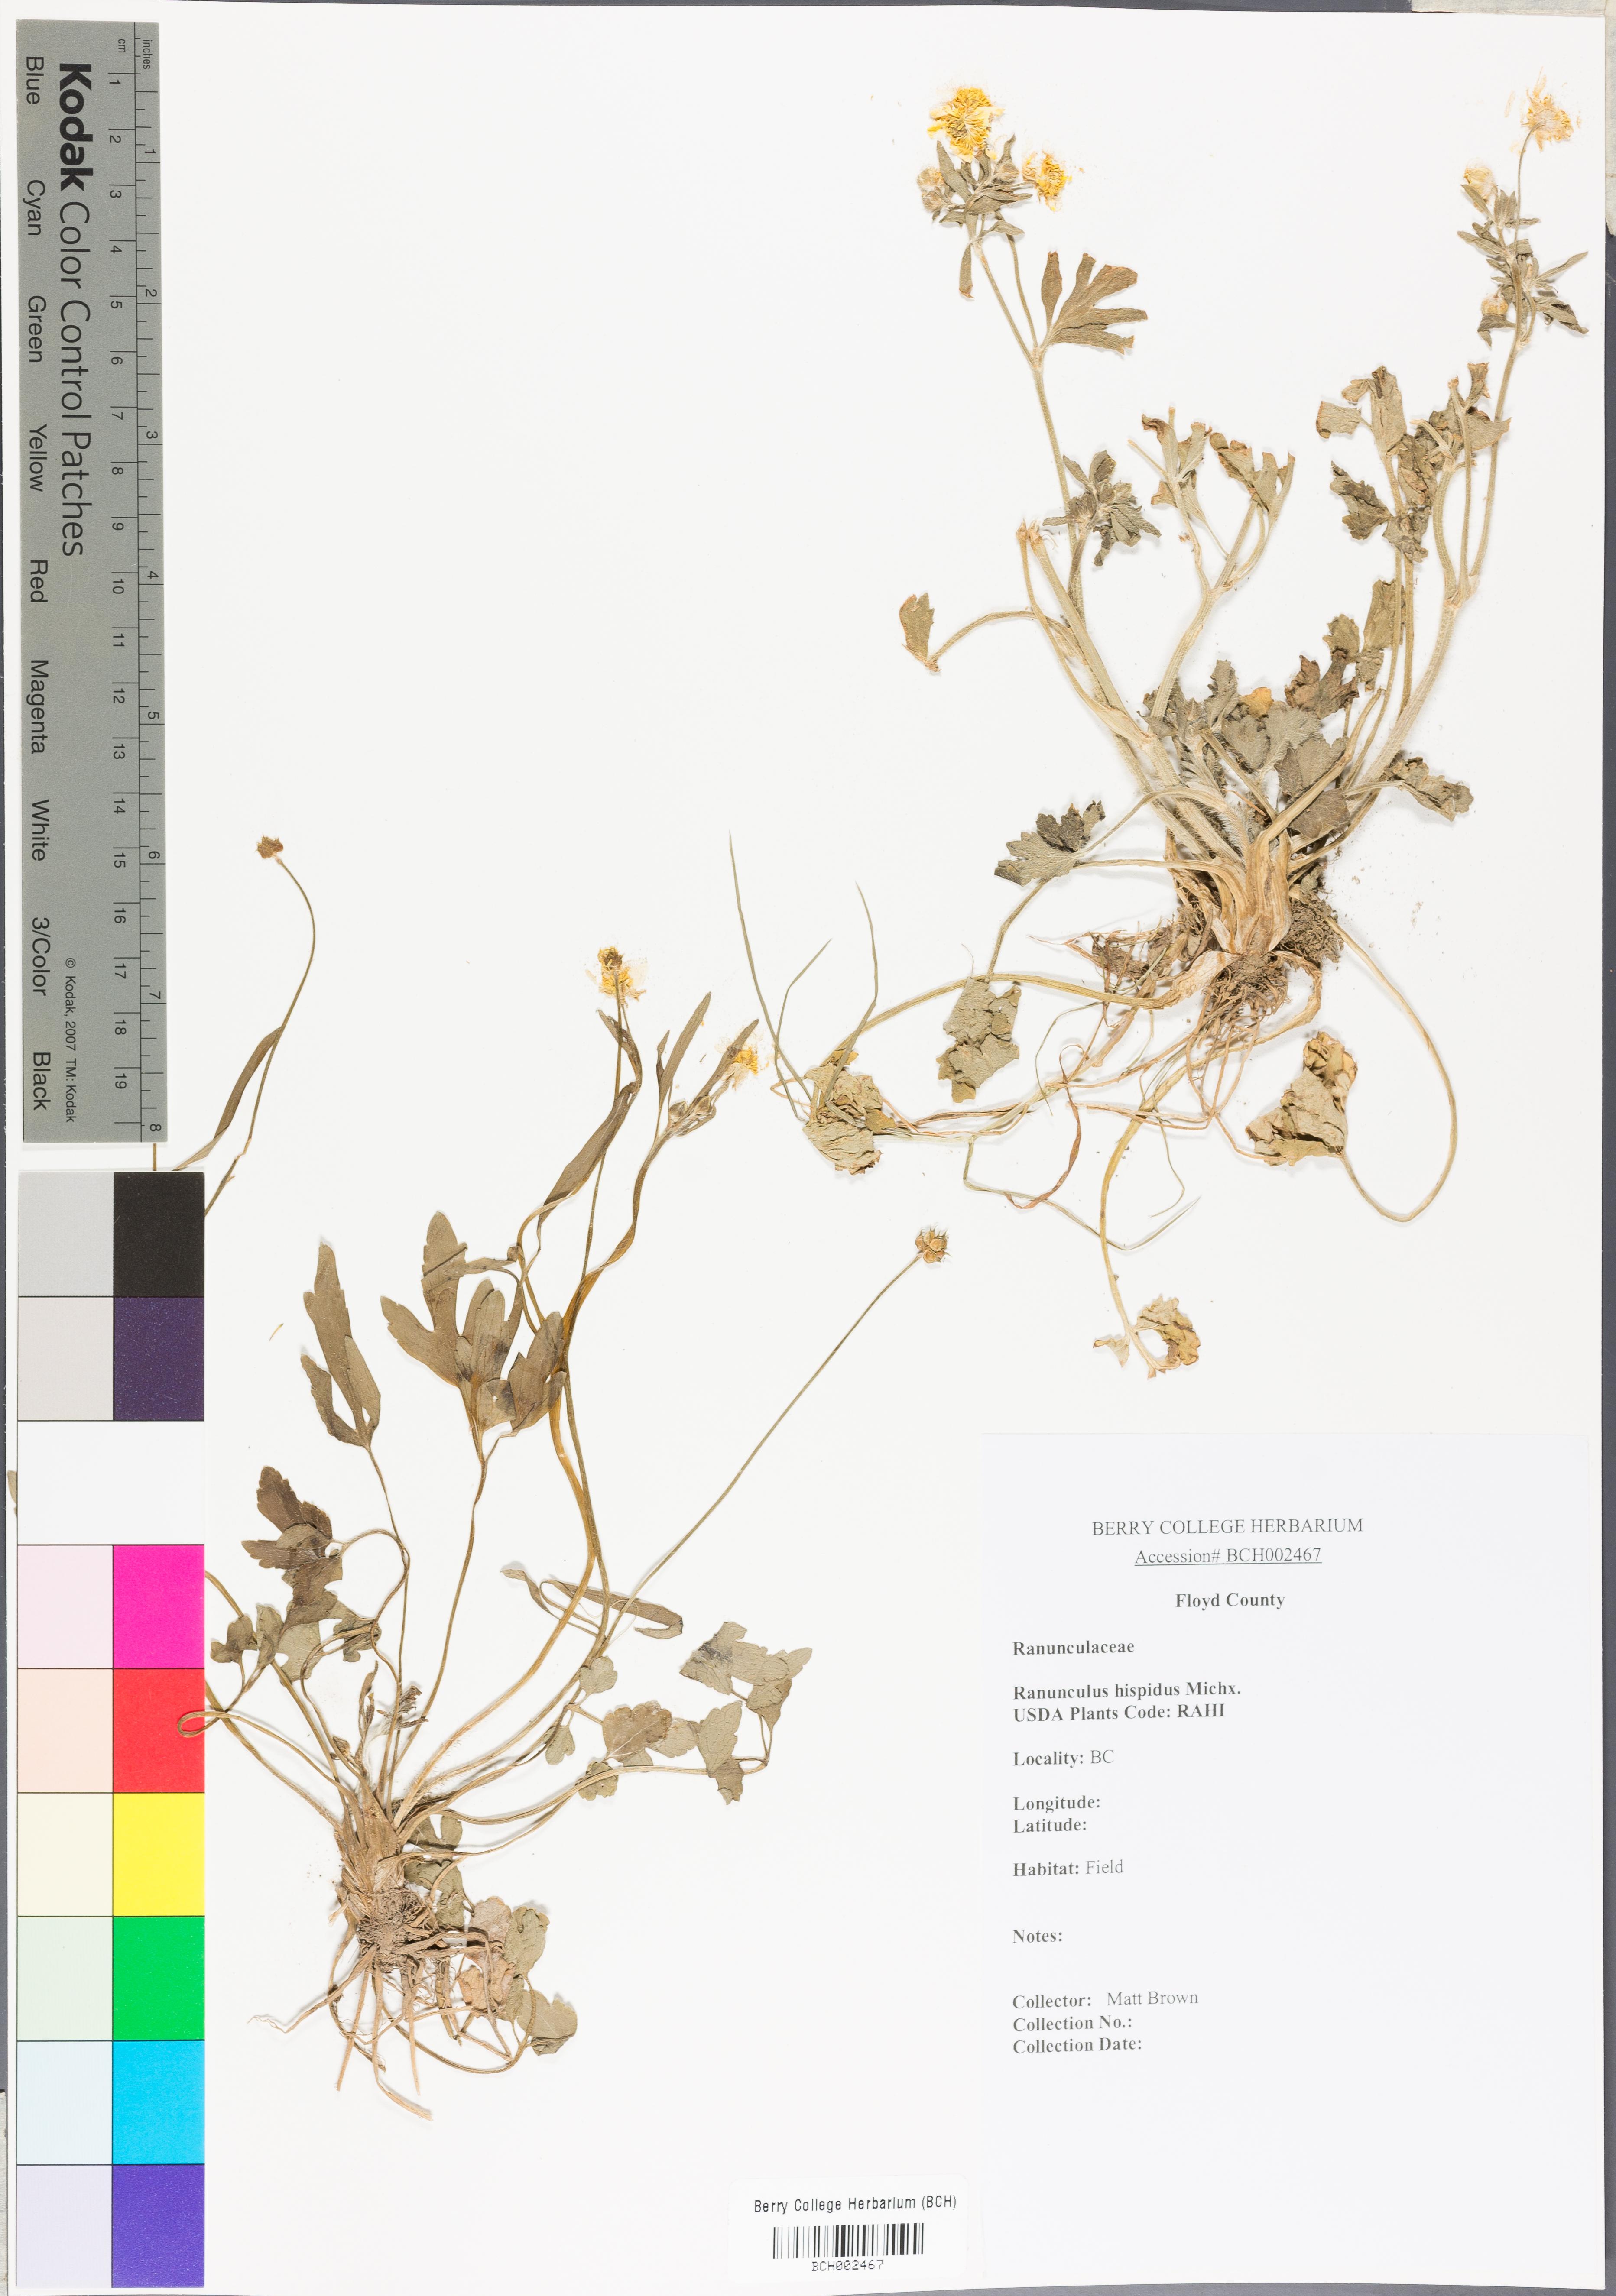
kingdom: Plantae
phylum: Tracheophyta
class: Magnoliopsida
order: Ranunculales
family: Ranunculaceae
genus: Ranunculus
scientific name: Ranunculus hispidus
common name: Bristly buttercup
